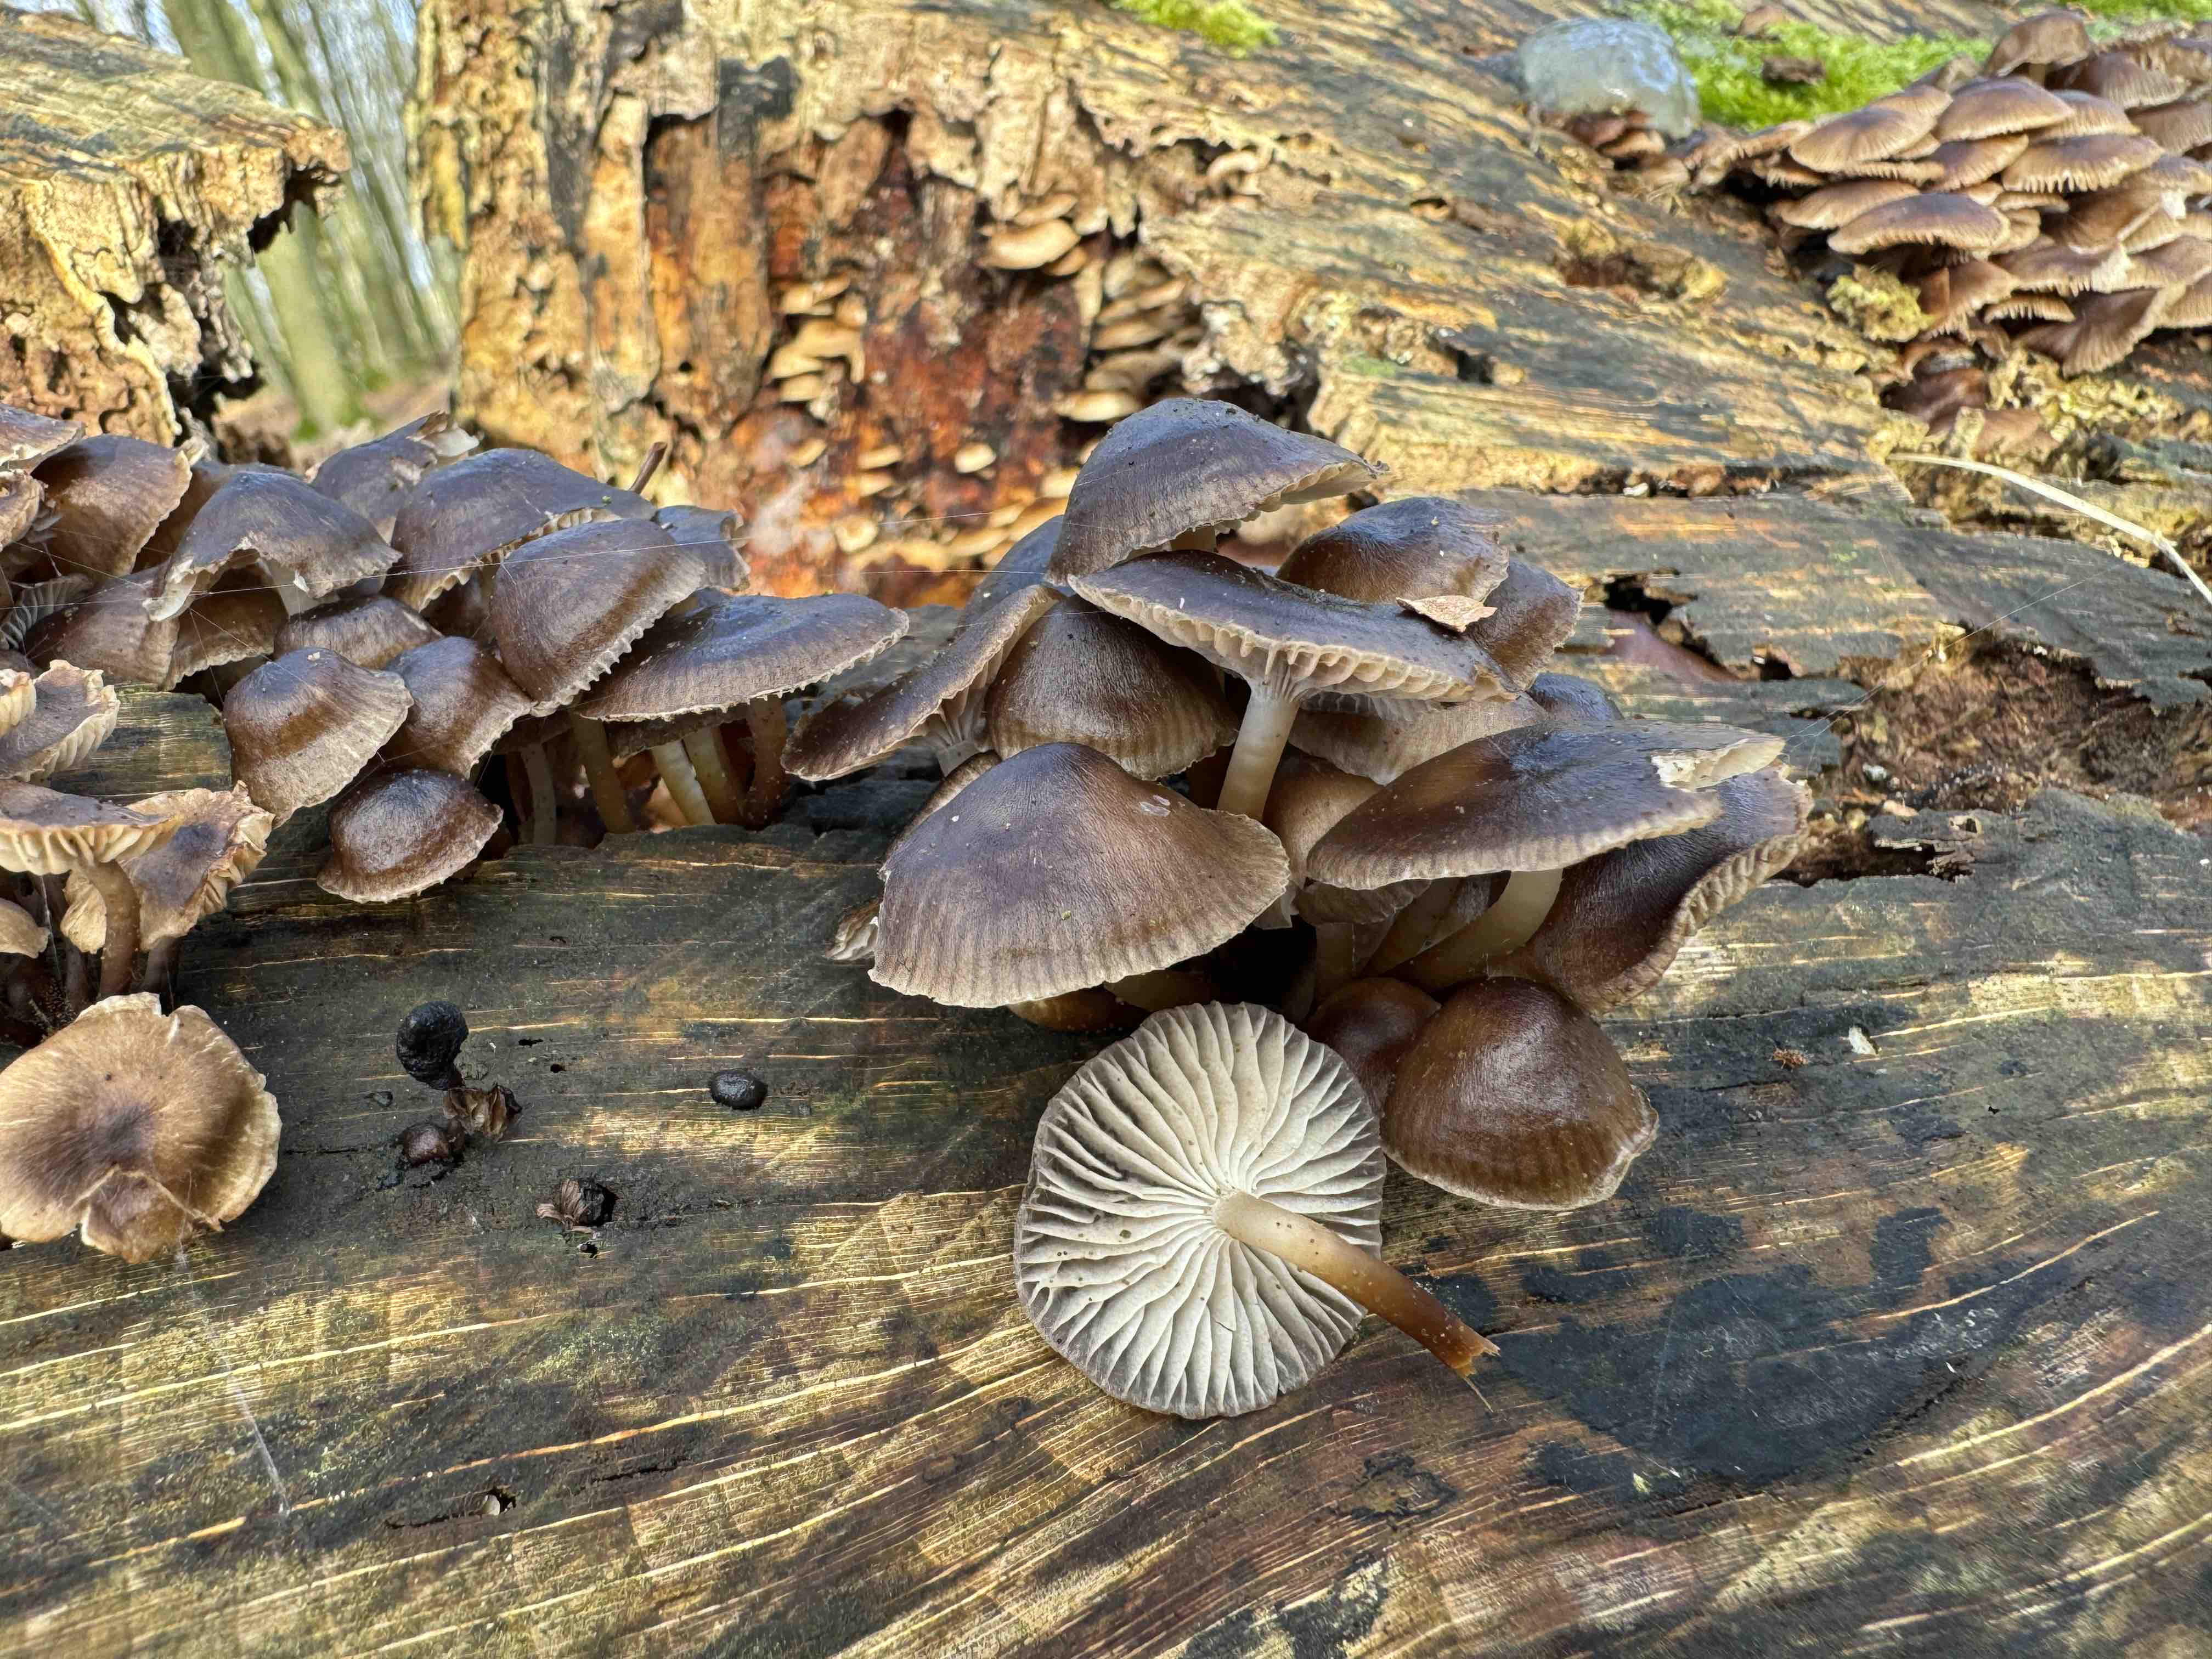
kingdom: Fungi
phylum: Basidiomycota
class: Agaricomycetes
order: Agaricales
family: Mycenaceae
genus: Mycena
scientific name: Mycena tintinnabulum
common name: vinter-huesvamp
